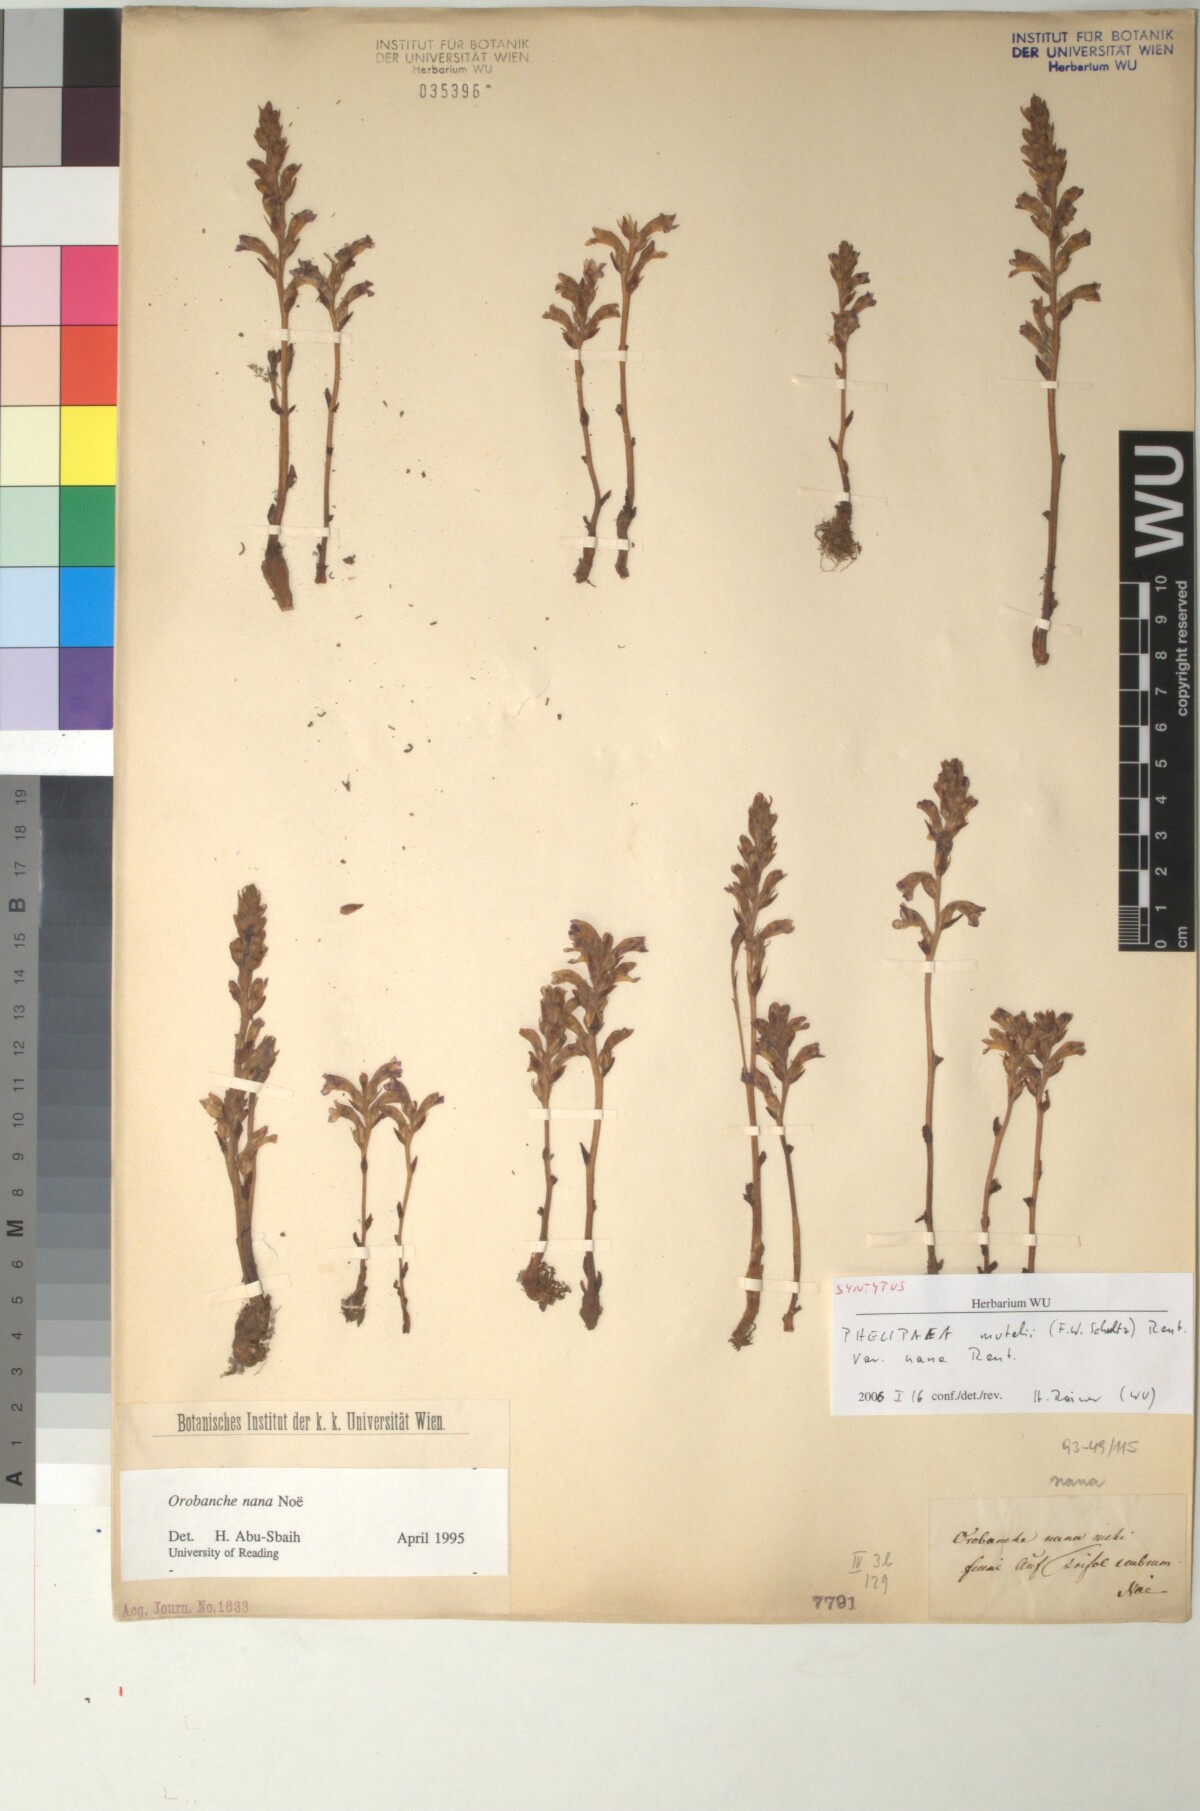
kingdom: Plantae
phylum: Tracheophyta
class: Magnoliopsida
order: Lamiales
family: Orobanchaceae
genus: Phelipanche
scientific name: Phelipanche mutelii
